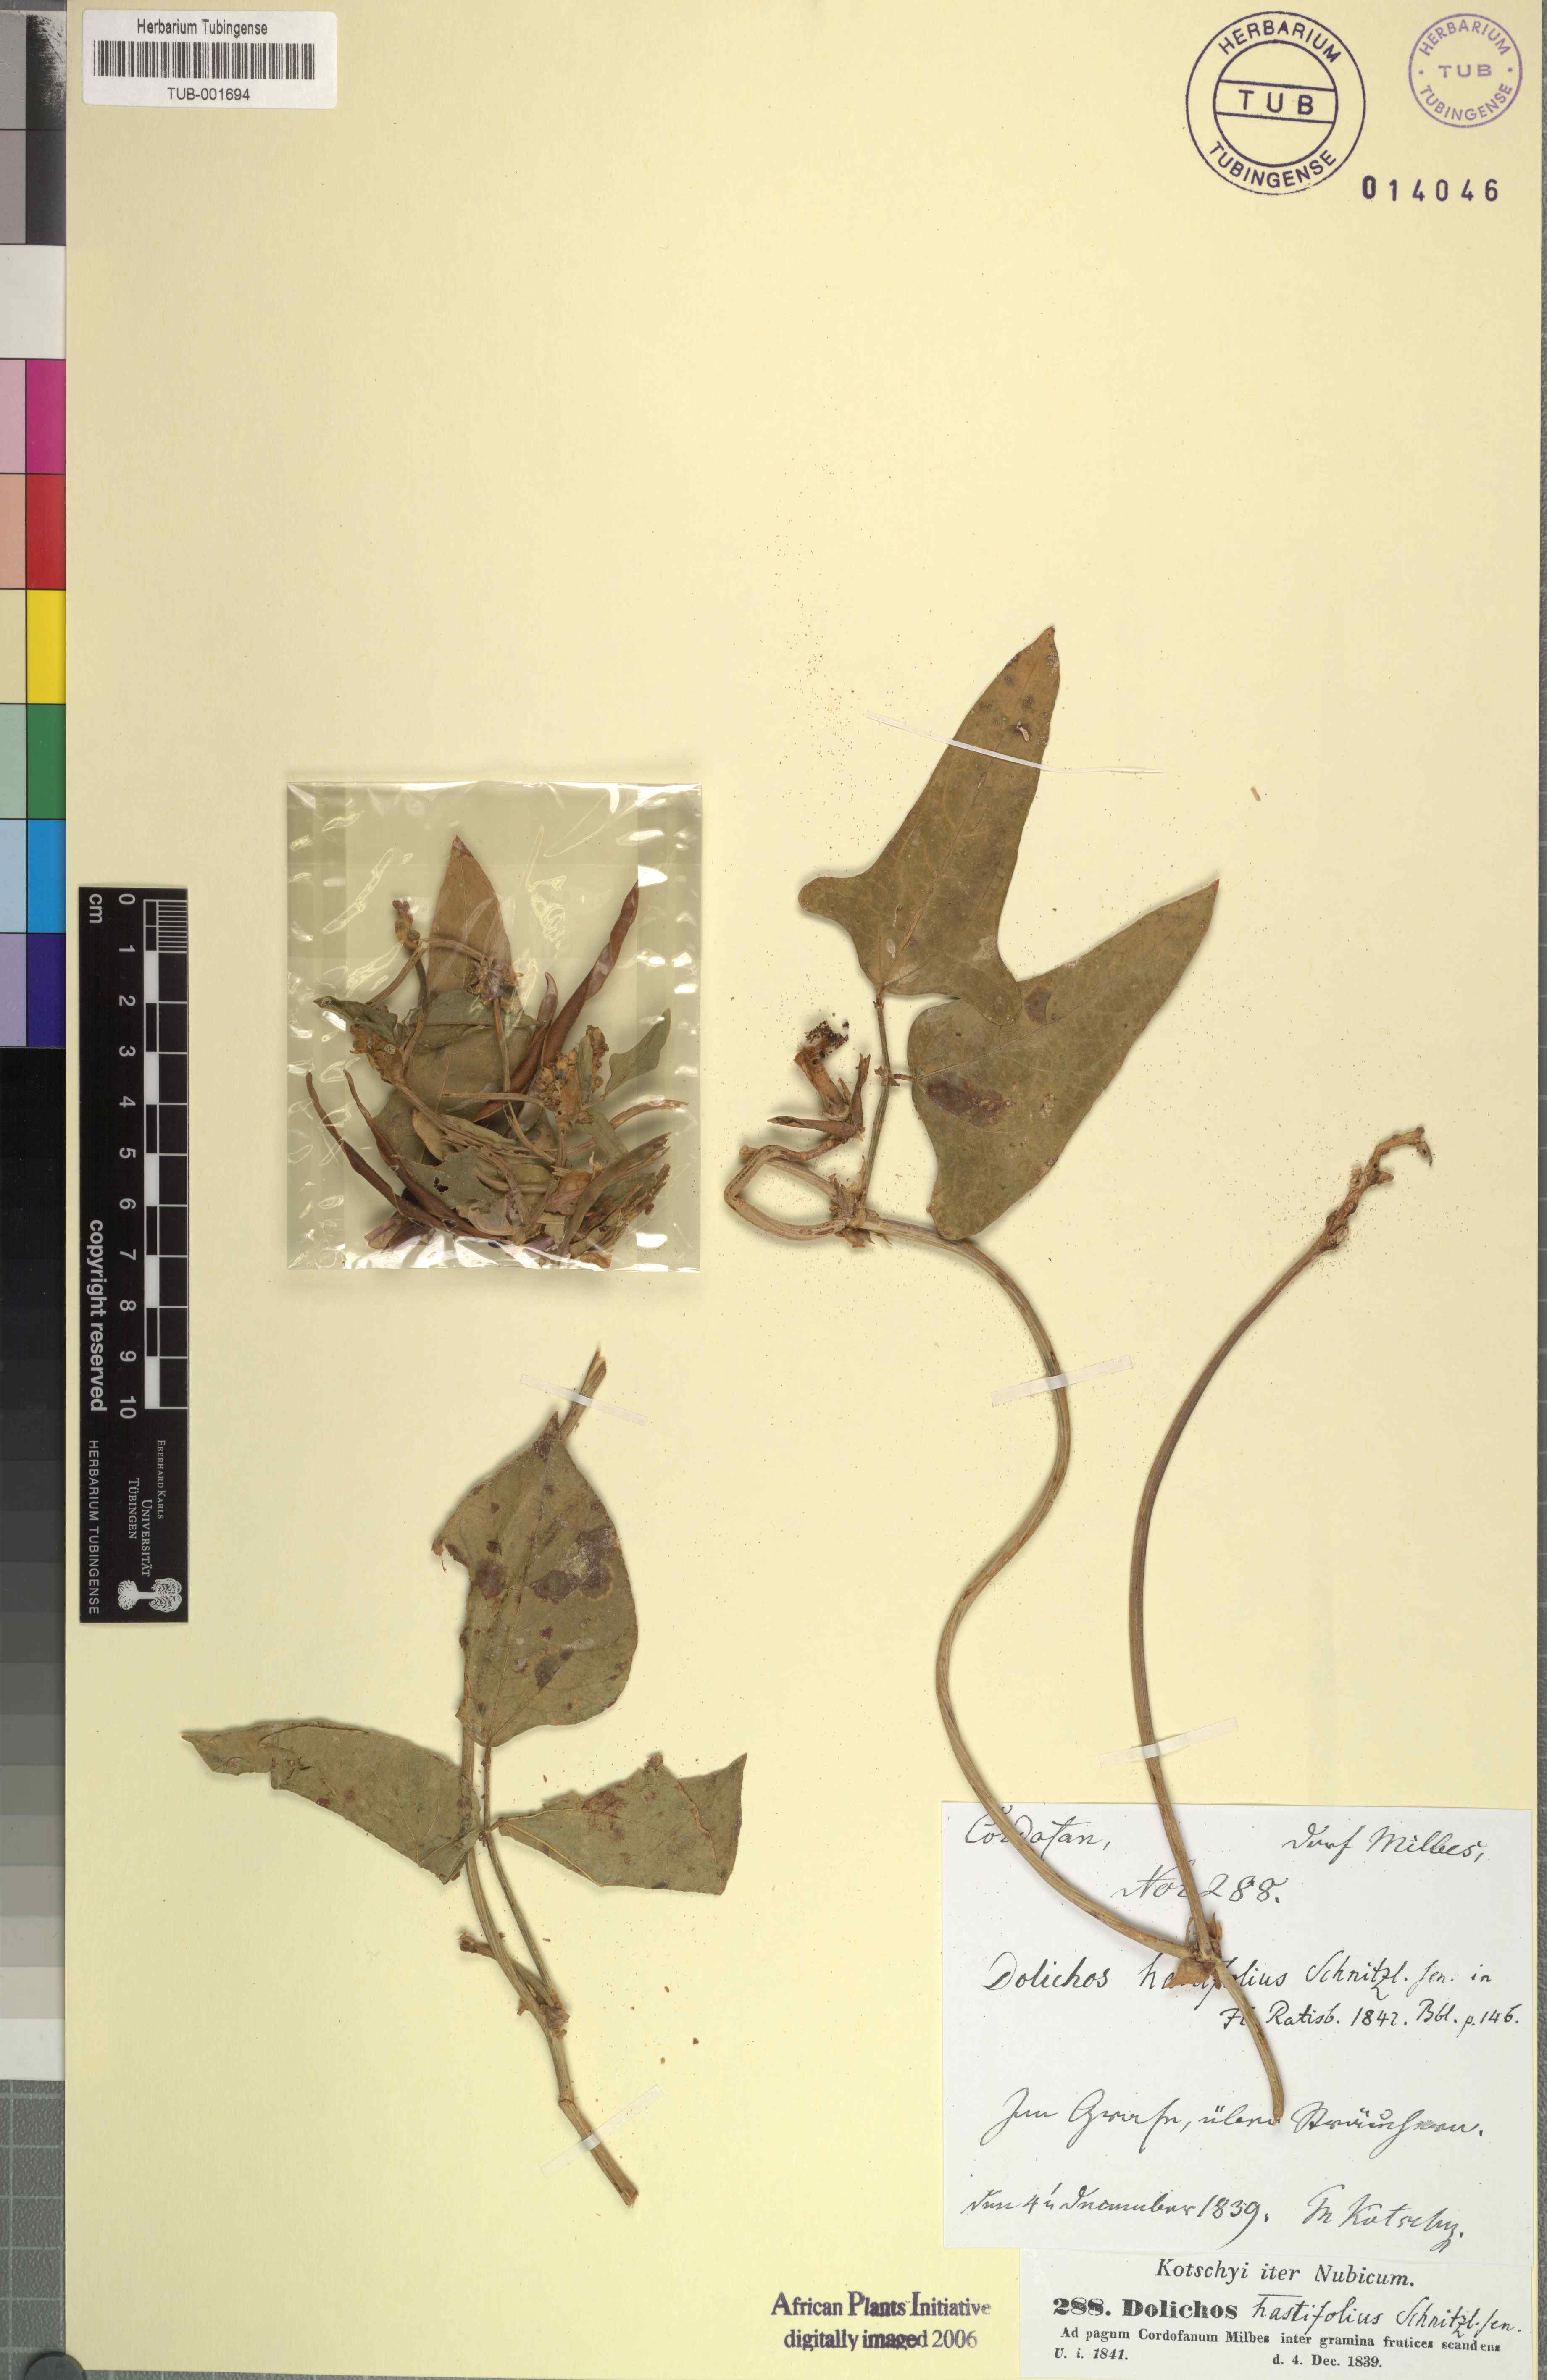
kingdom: Plantae
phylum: Tracheophyta
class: Magnoliopsida
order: Fabales
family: Fabaceae
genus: Vigna
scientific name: Vigna unguiculata
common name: Cowpea
